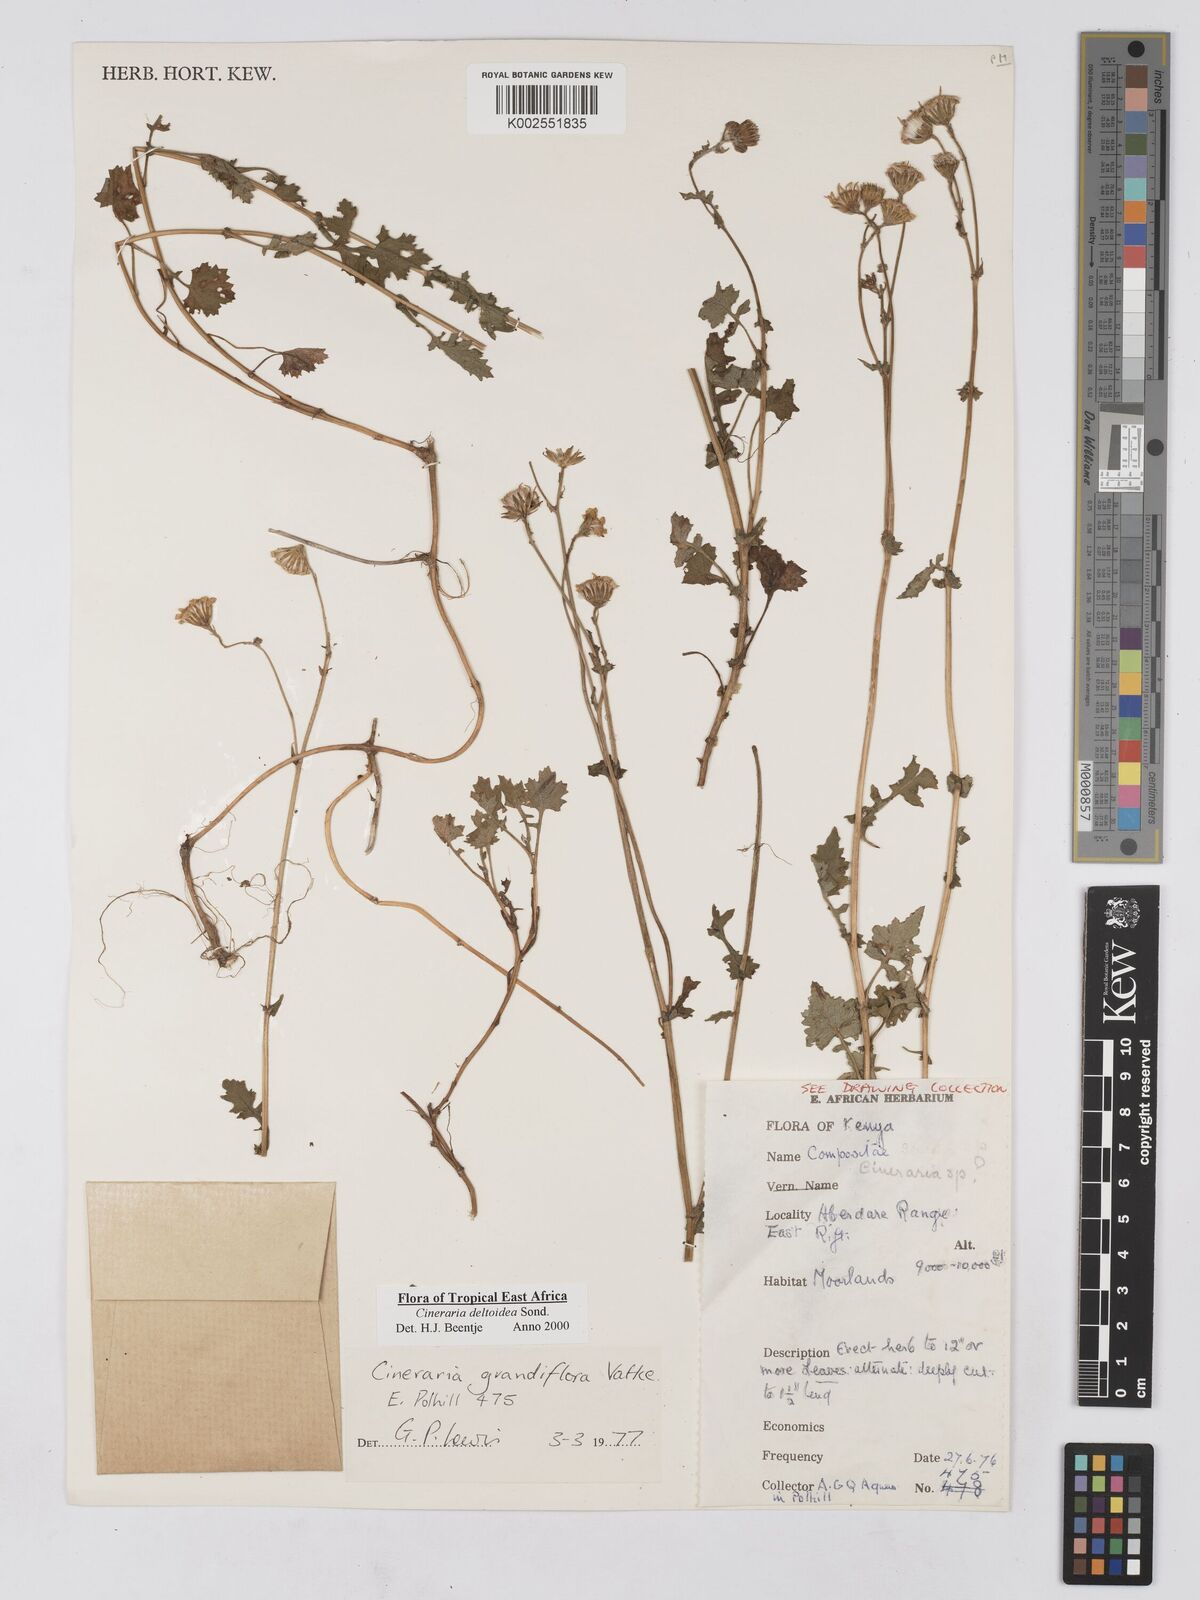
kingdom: Plantae
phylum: Tracheophyta
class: Magnoliopsida
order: Asterales
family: Asteraceae
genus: Cineraria
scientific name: Cineraria deltoidea
